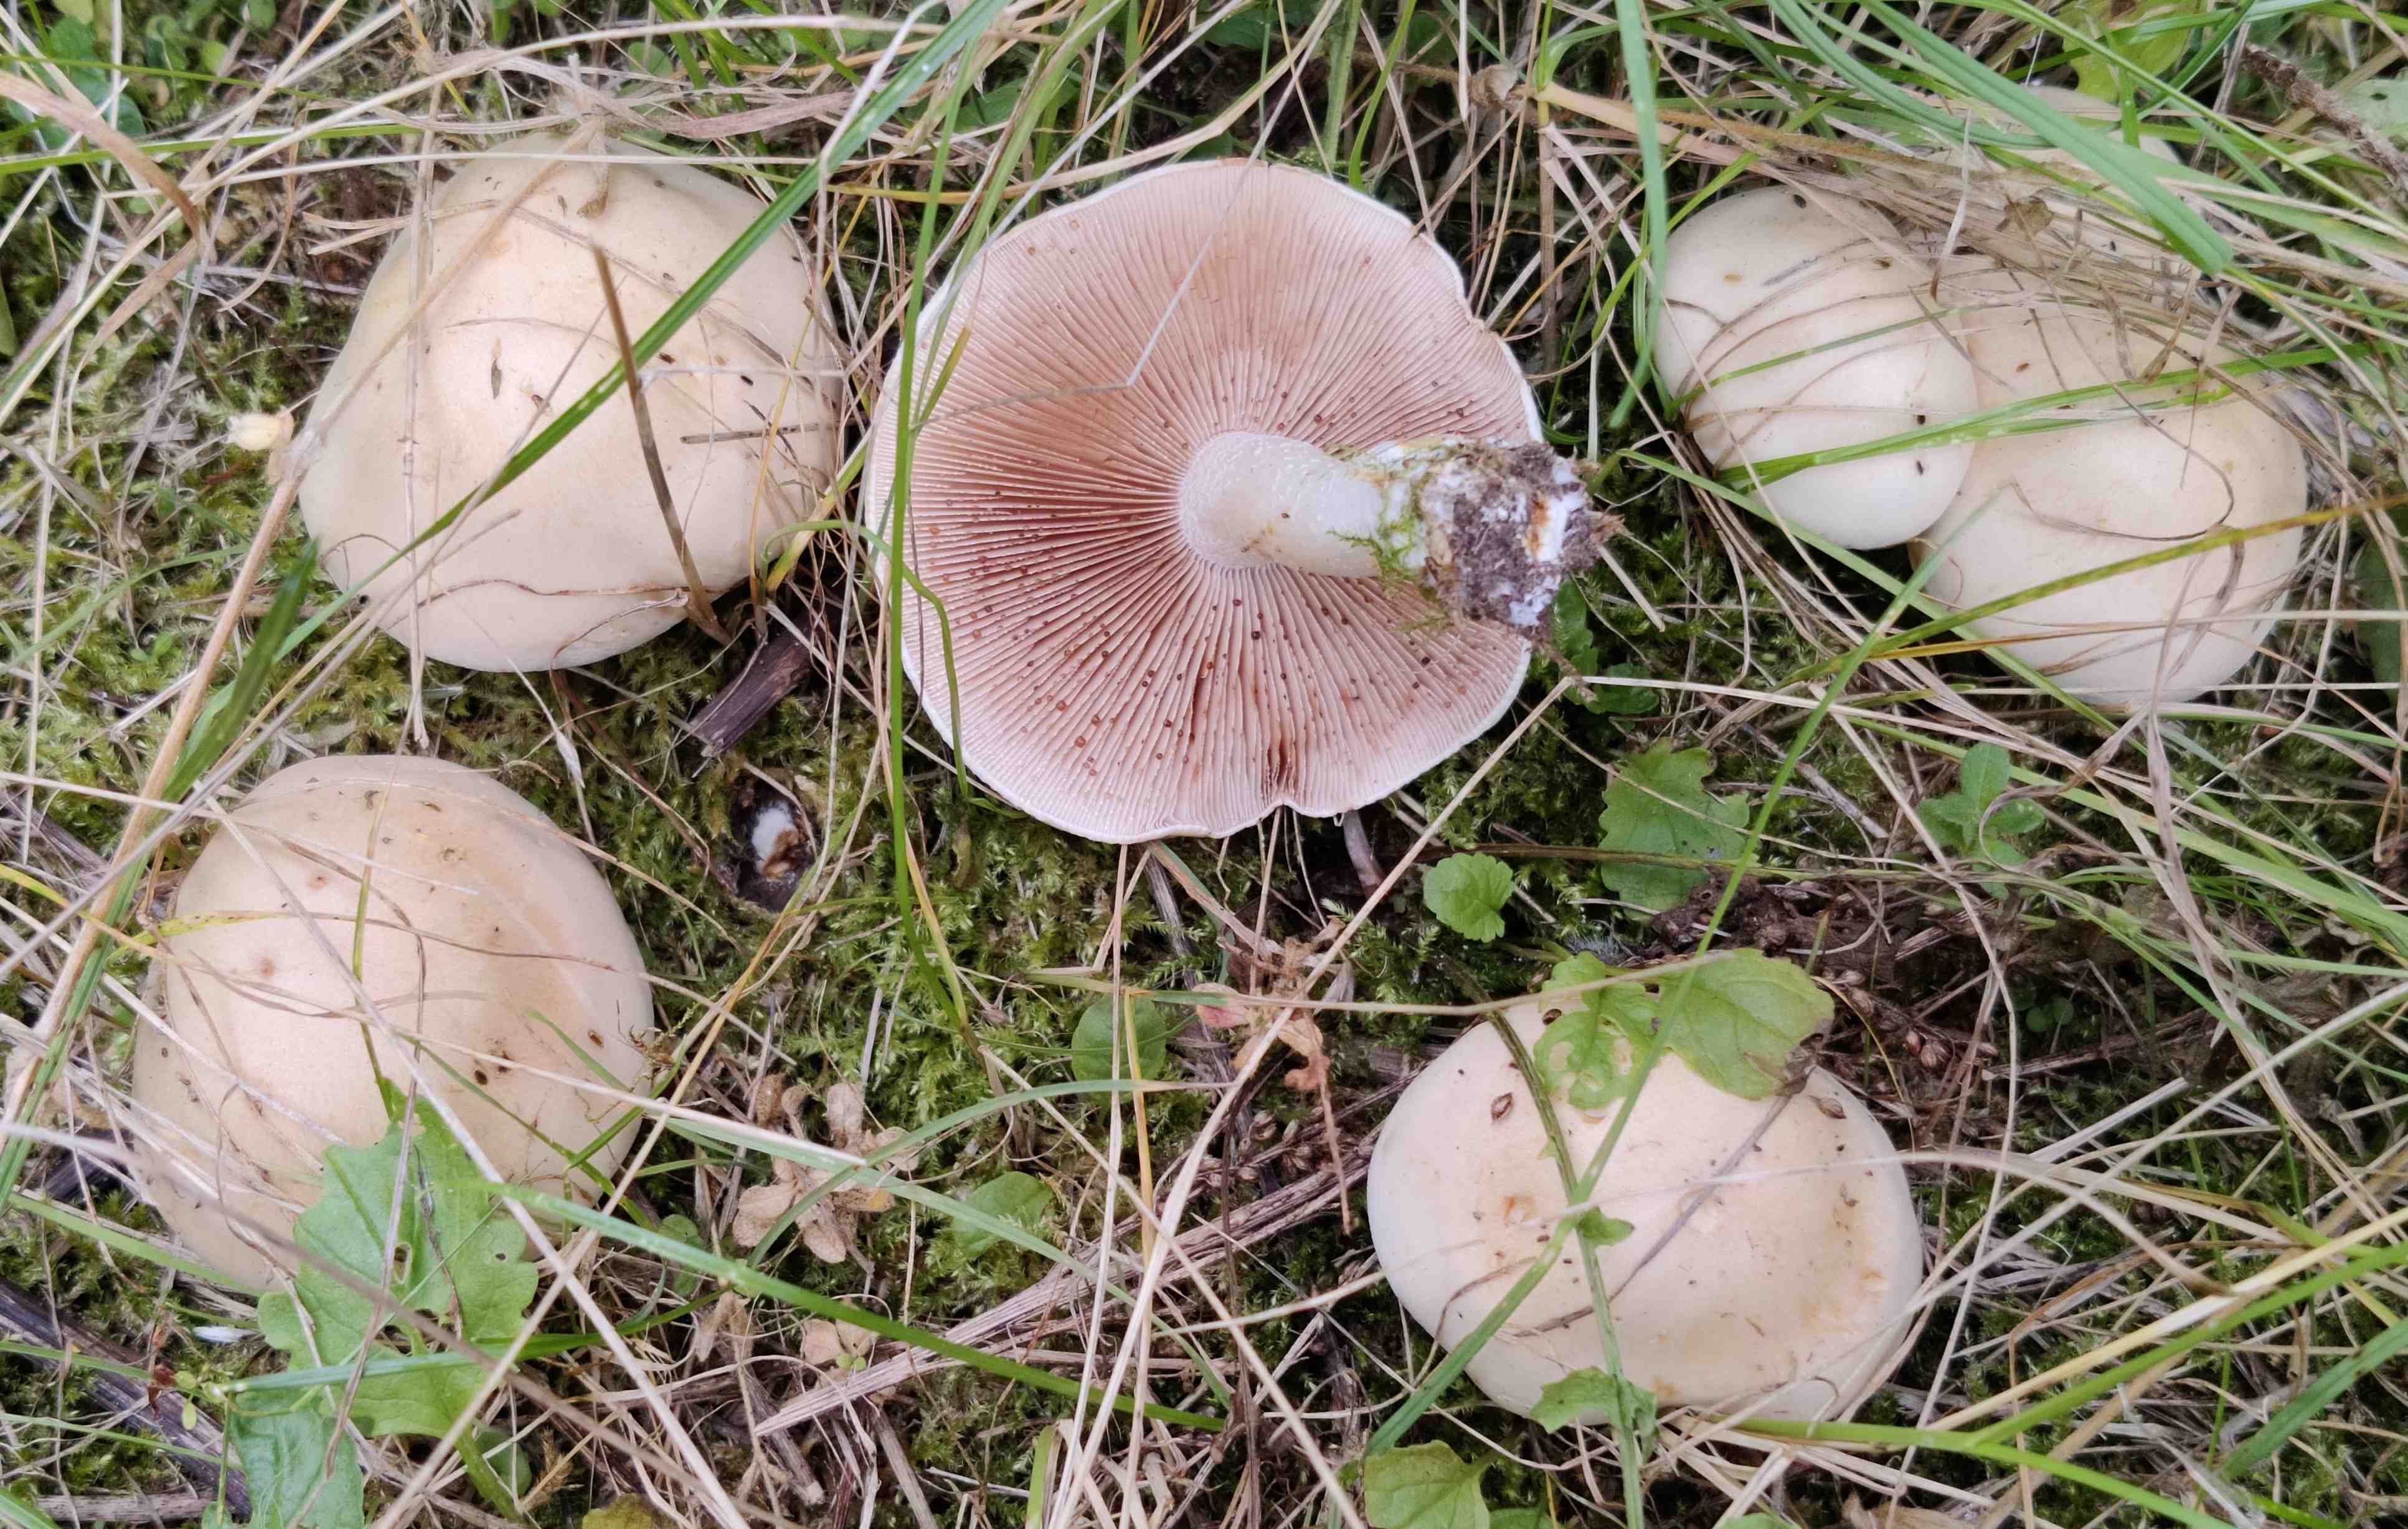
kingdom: Fungi
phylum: Basidiomycota
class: Agaricomycetes
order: Agaricales
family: Hymenogastraceae
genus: Hebeloma
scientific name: Hebeloma
